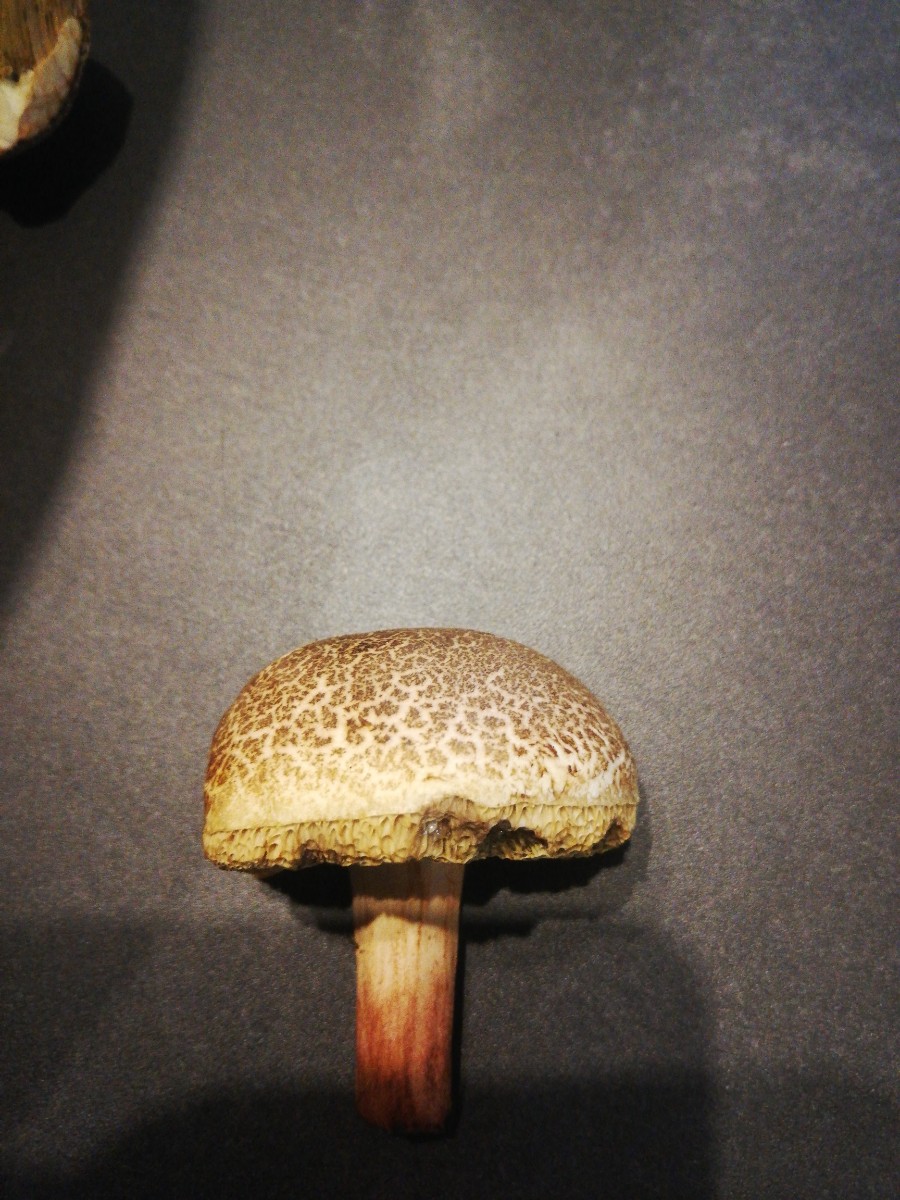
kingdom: Fungi
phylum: Basidiomycota
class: Agaricomycetes
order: Boletales
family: Boletaceae
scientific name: Boletaceae
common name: rørhatfamilien
